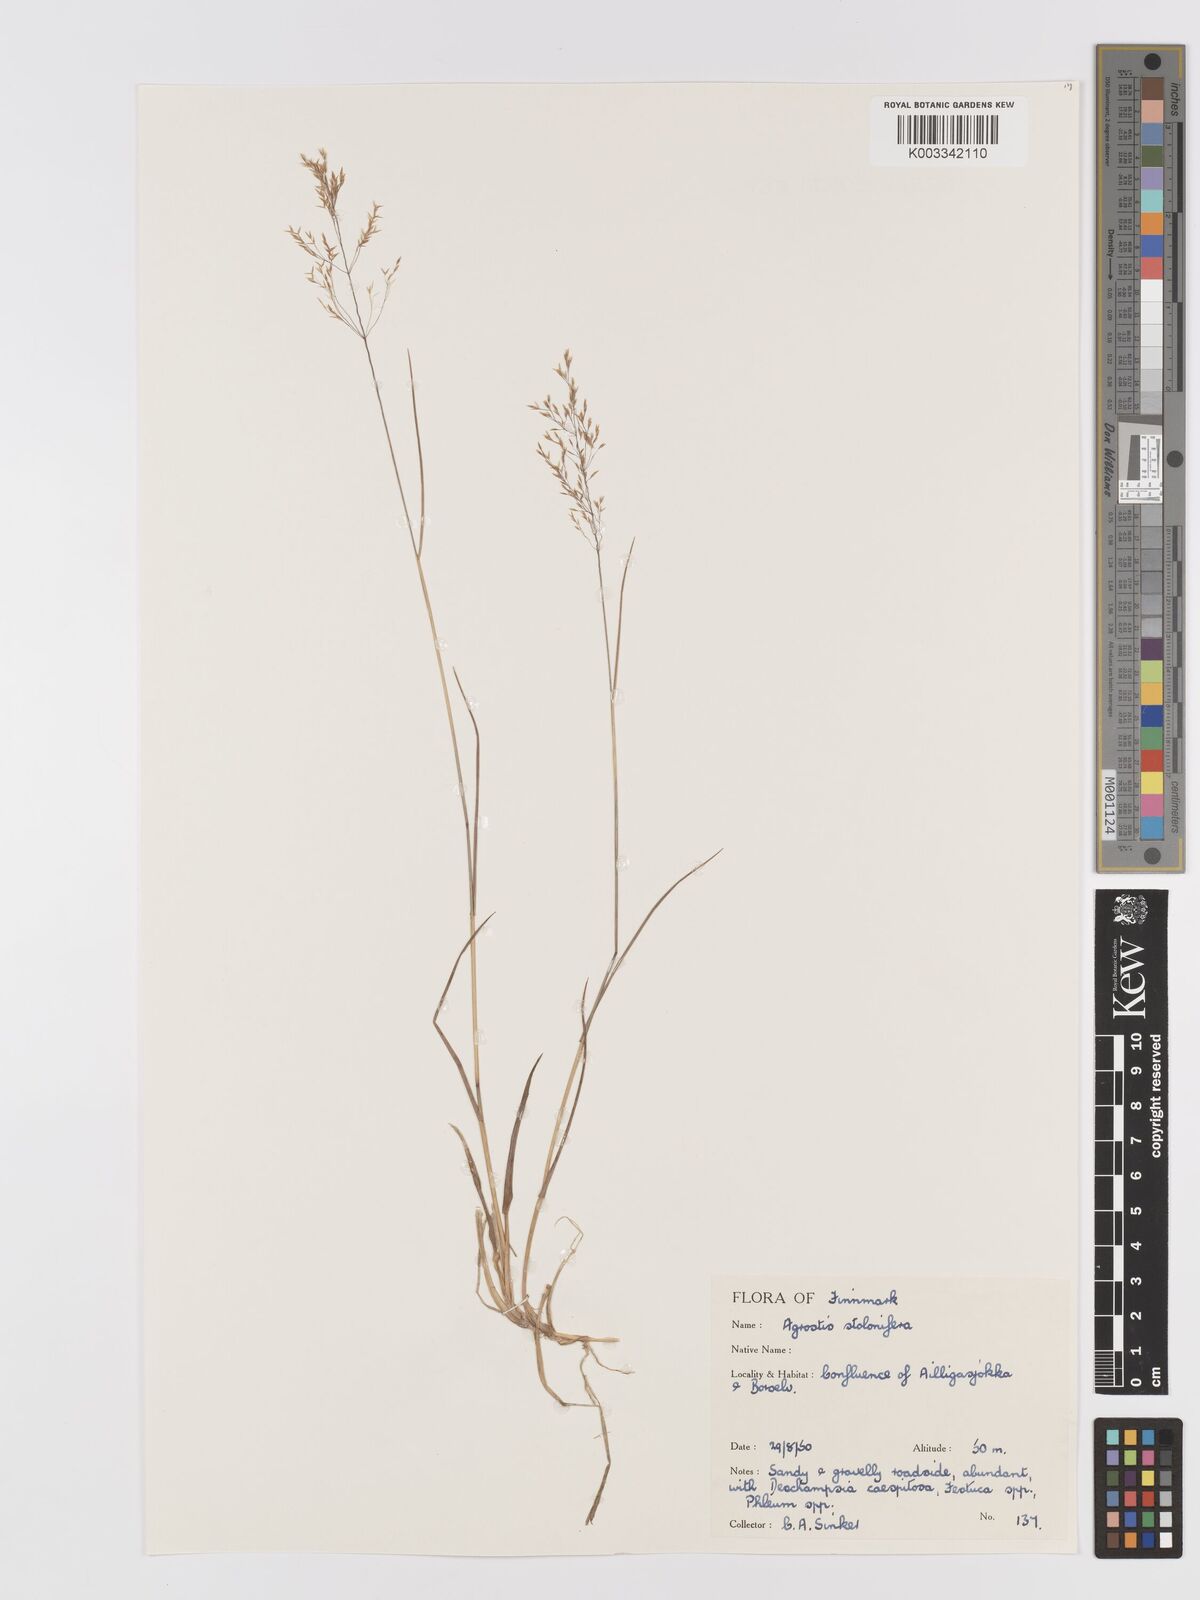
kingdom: Plantae
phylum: Tracheophyta
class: Liliopsida
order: Poales
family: Poaceae
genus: Agrostis
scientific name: Agrostis stolonifera
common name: Creeping bentgrass
